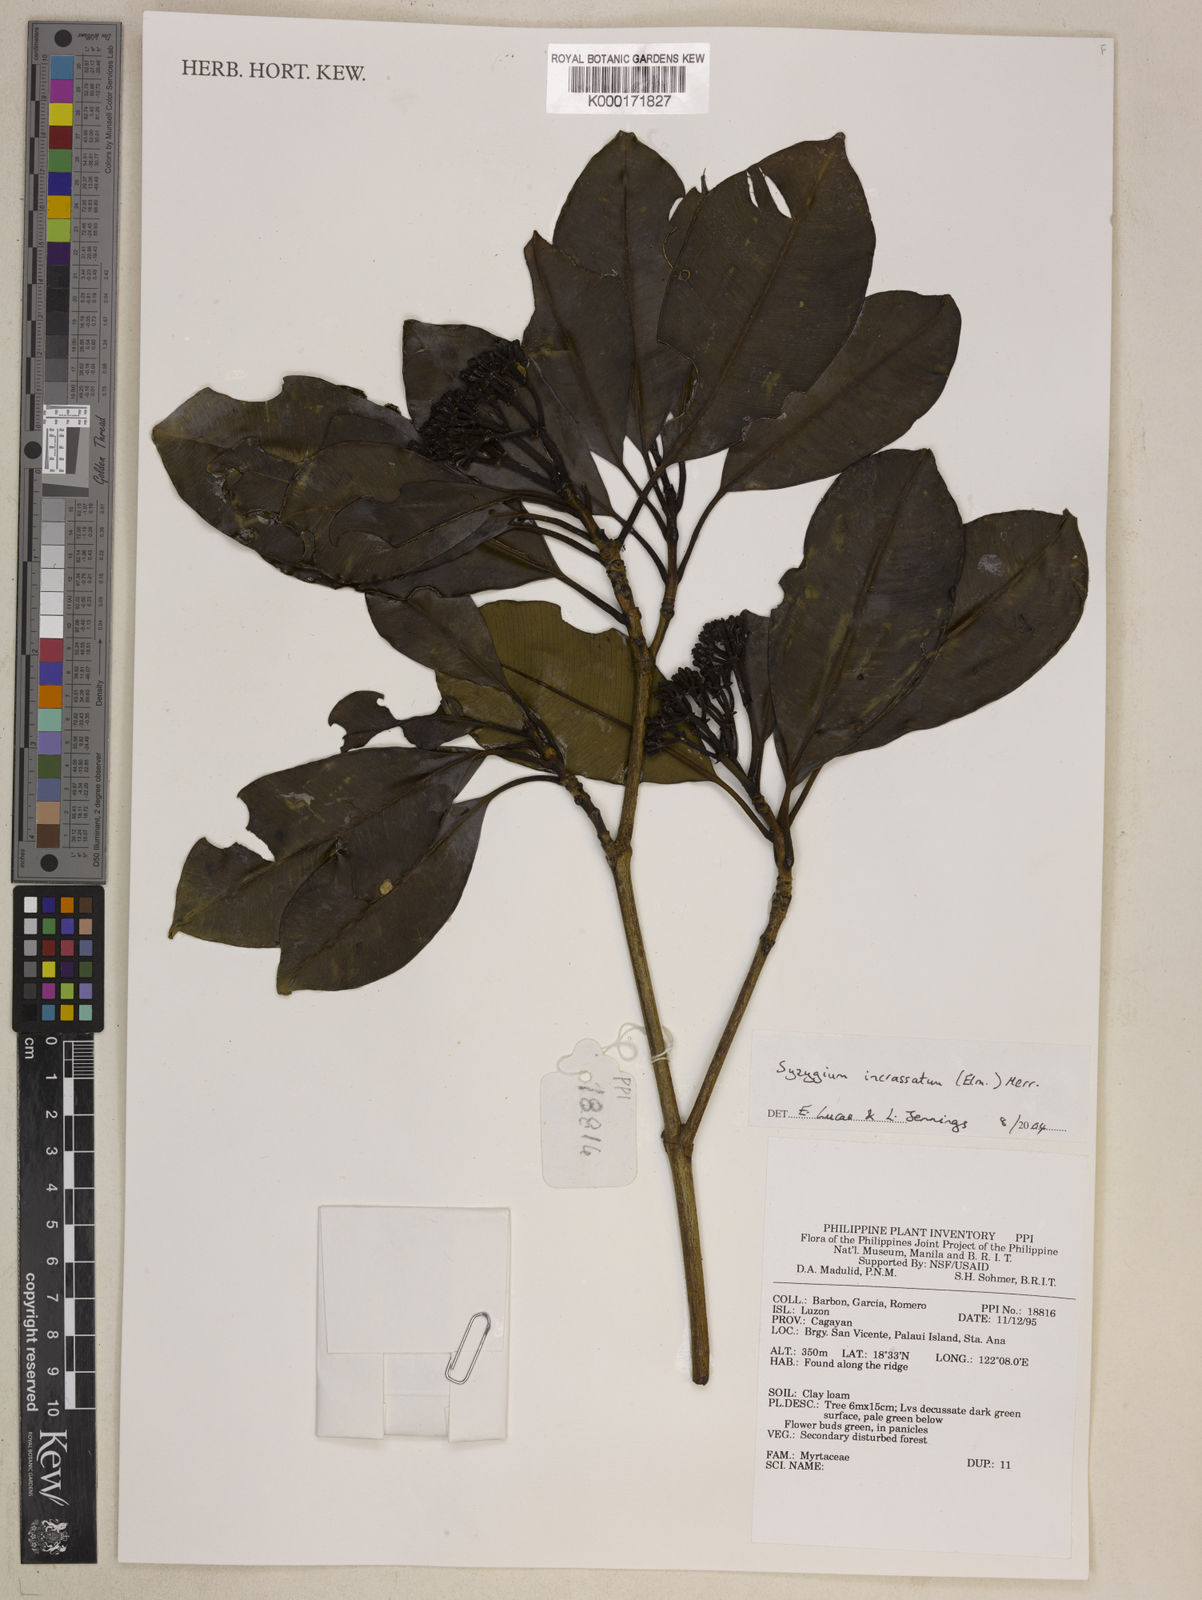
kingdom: Plantae
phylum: Tracheophyta
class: Magnoliopsida
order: Myrtales
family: Myrtaceae
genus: Syzygium
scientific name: Syzygium incrassatum
